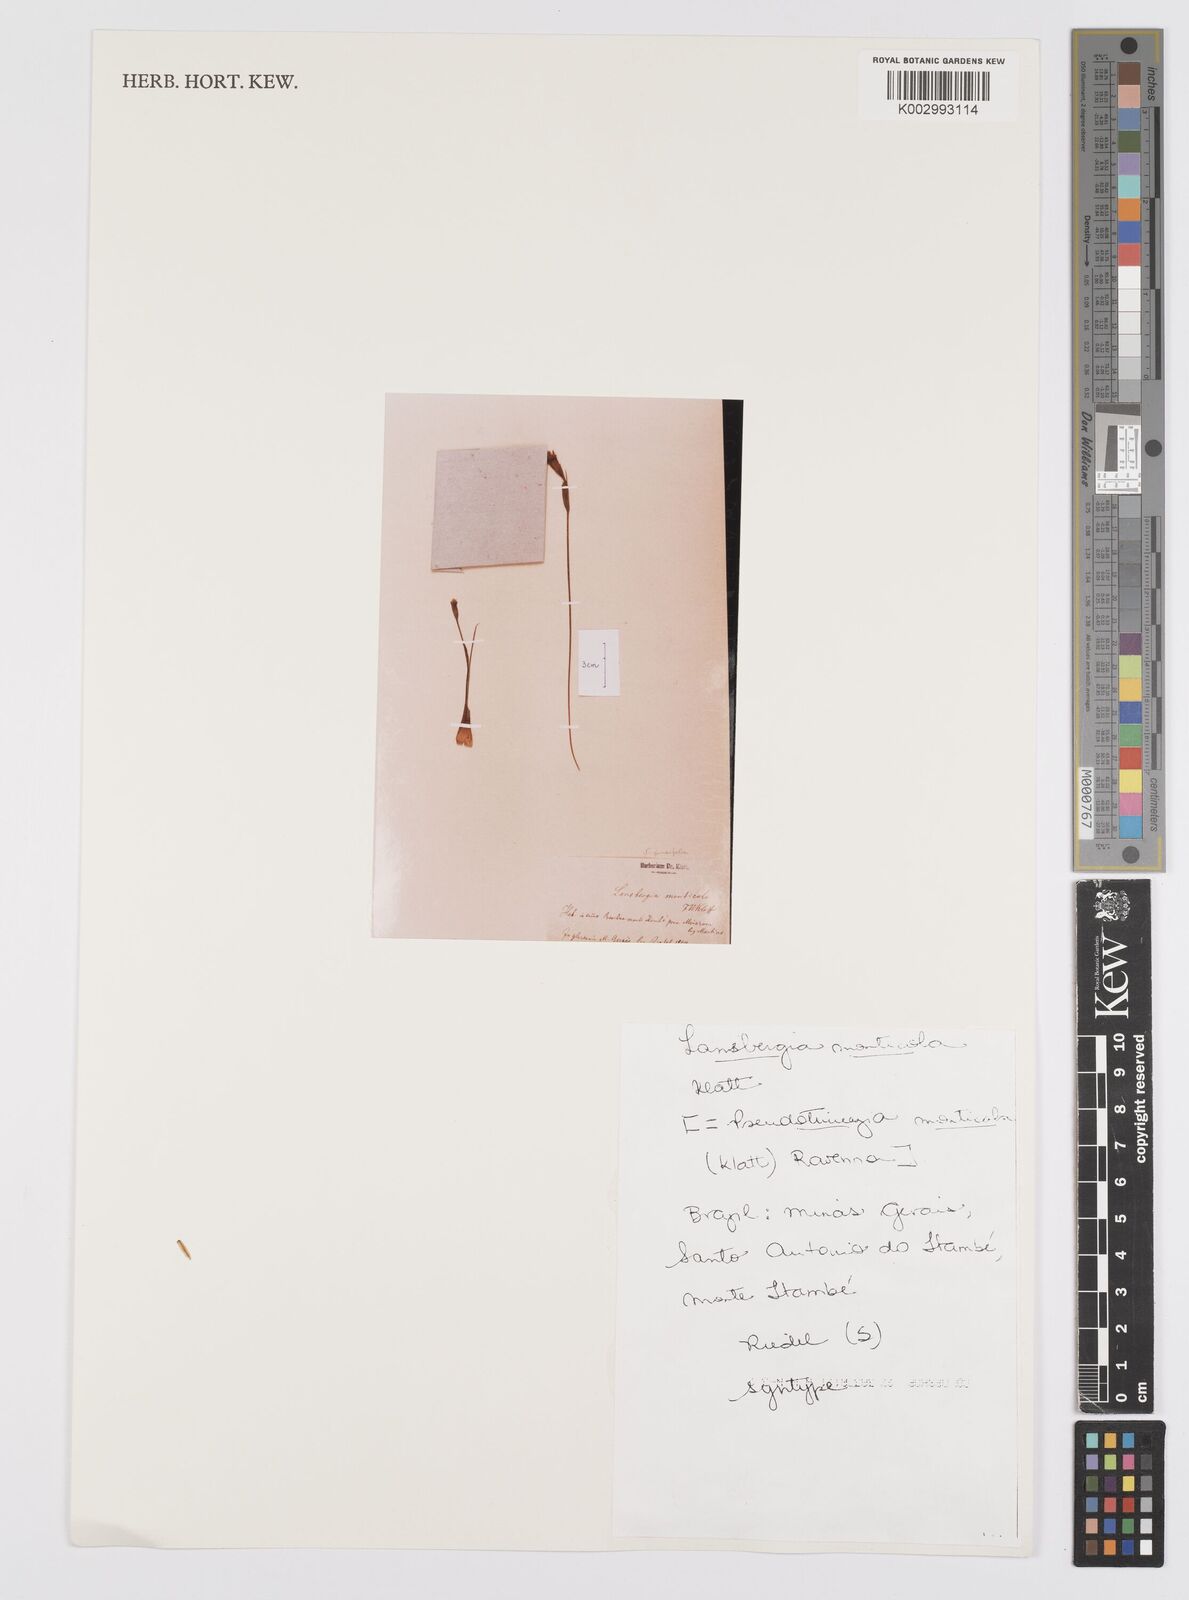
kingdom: Plantae
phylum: Tracheophyta
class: Liliopsida
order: Asparagales
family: Iridaceae
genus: Trimezia
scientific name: Trimezia monticola
